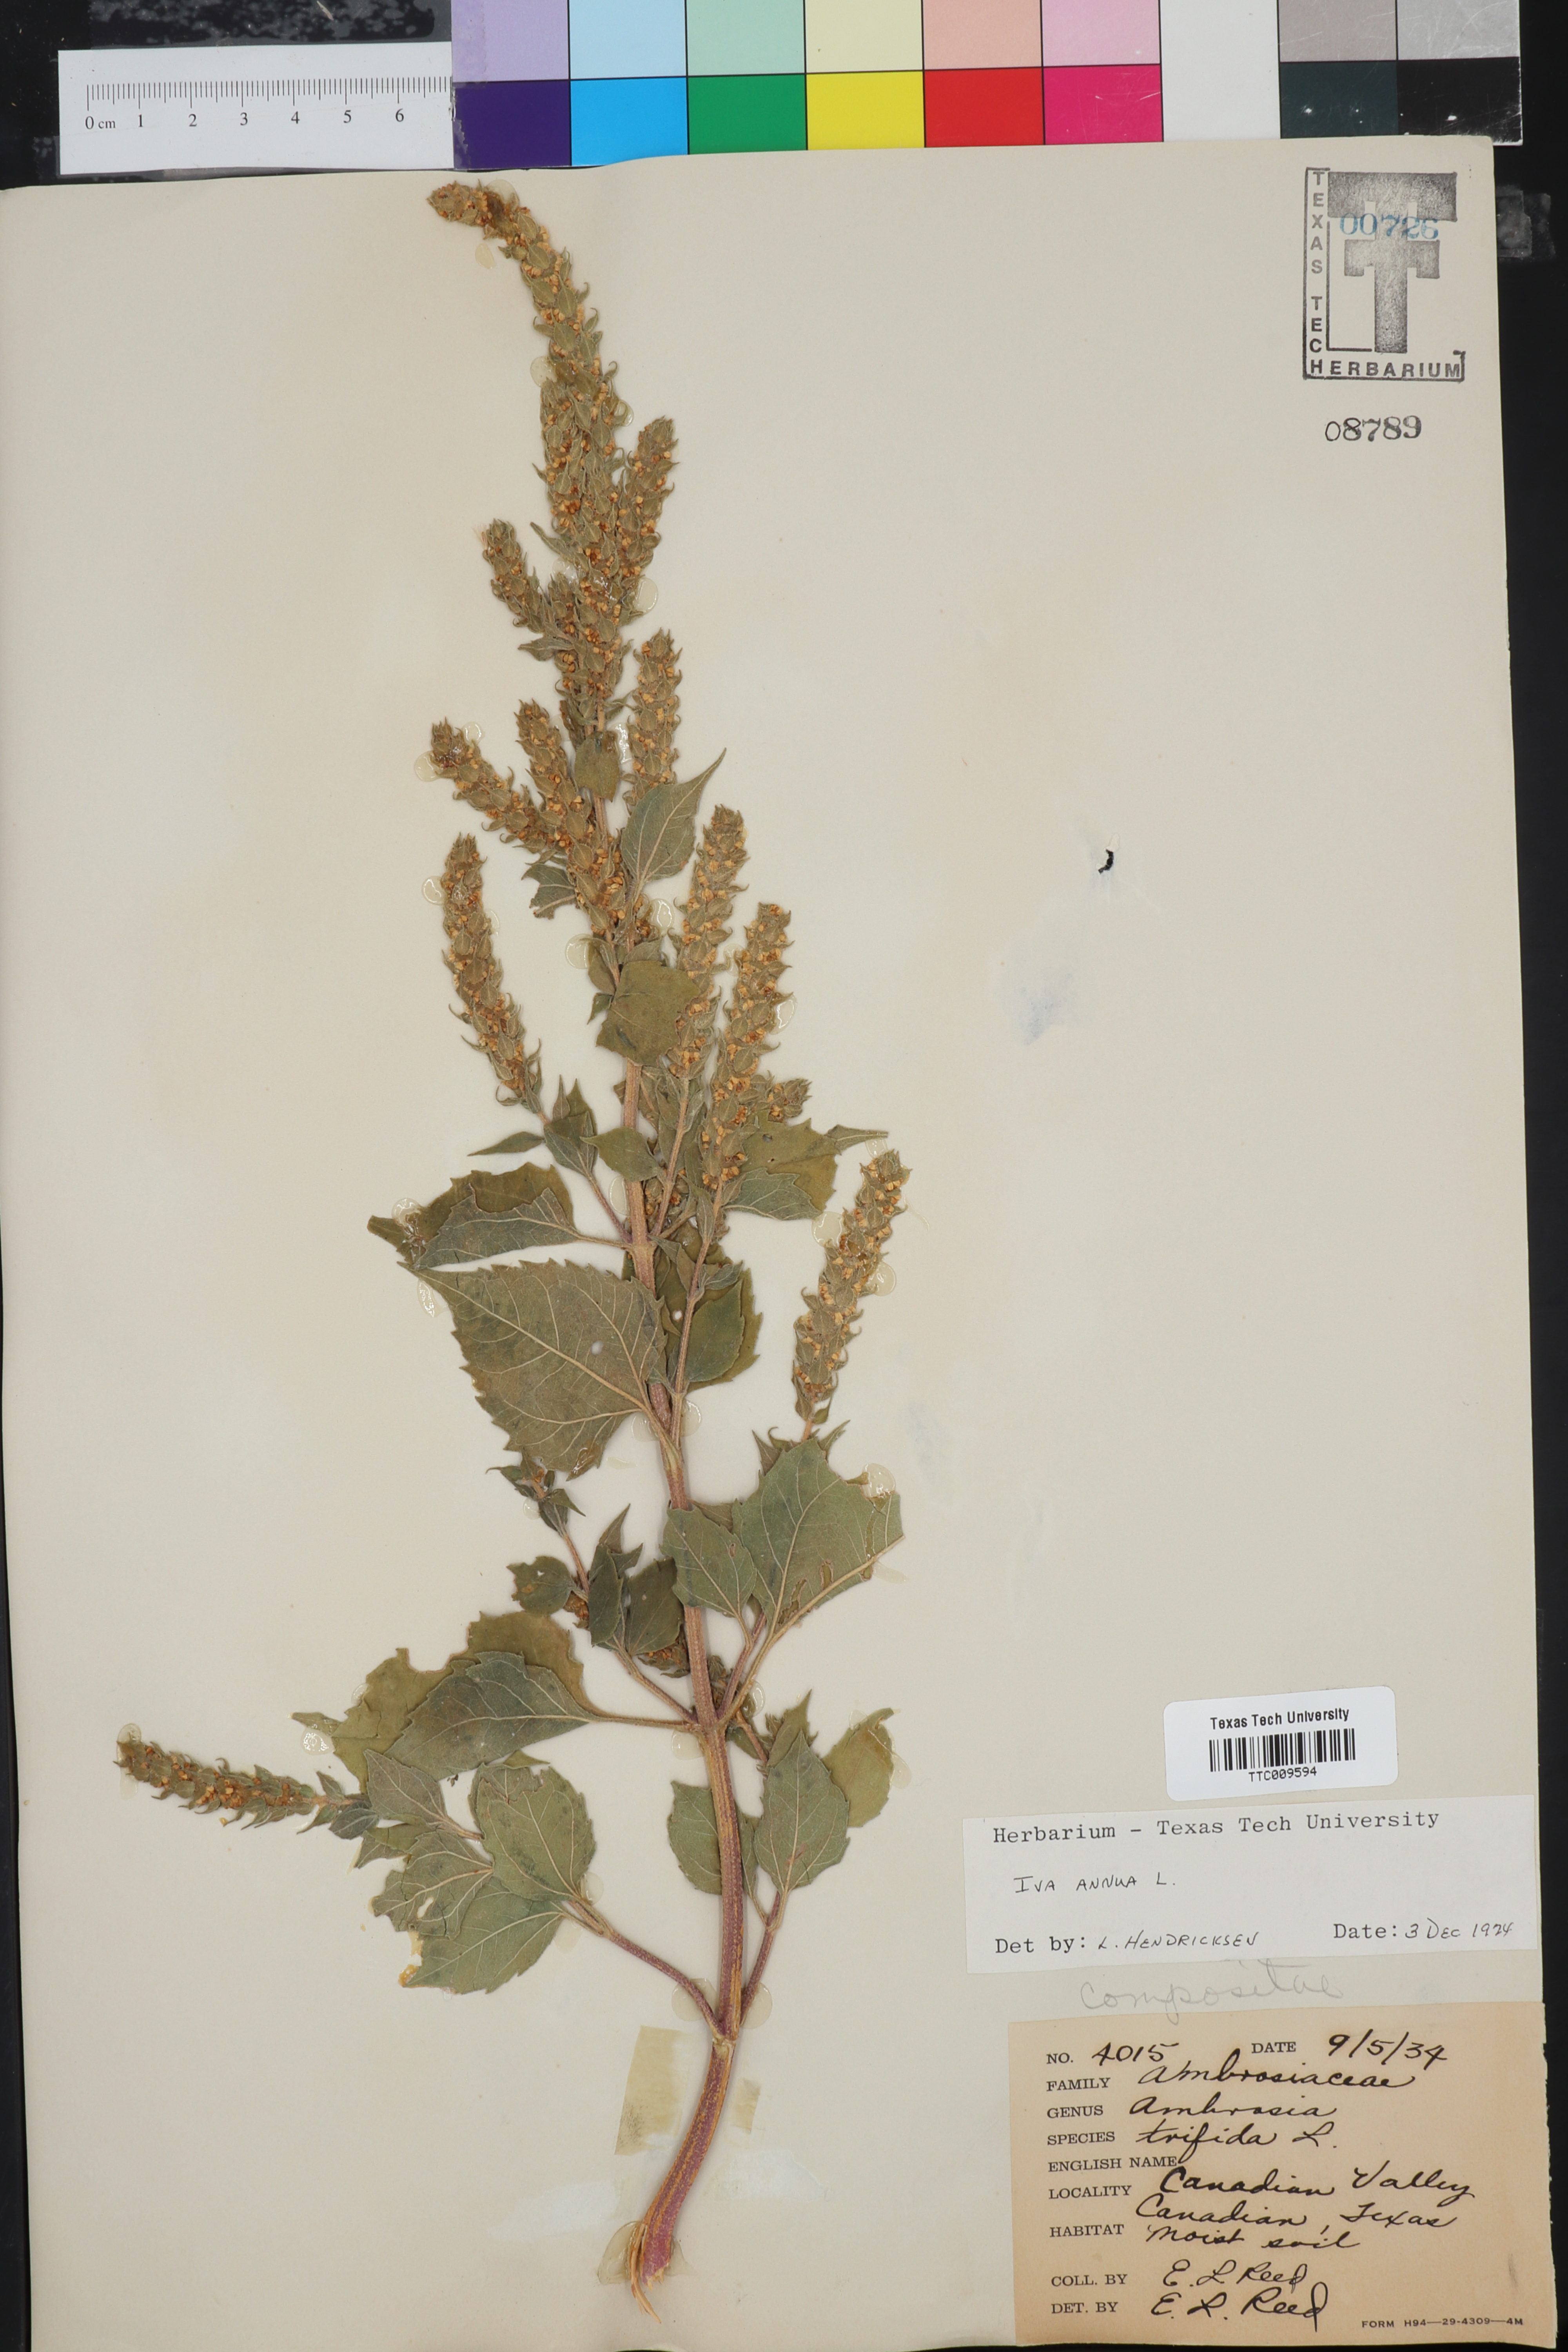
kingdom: Plantae
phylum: Tracheophyta
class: Magnoliopsida
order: Asterales
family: Asteraceae
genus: Iva
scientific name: Iva annua
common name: Marsh-elder
